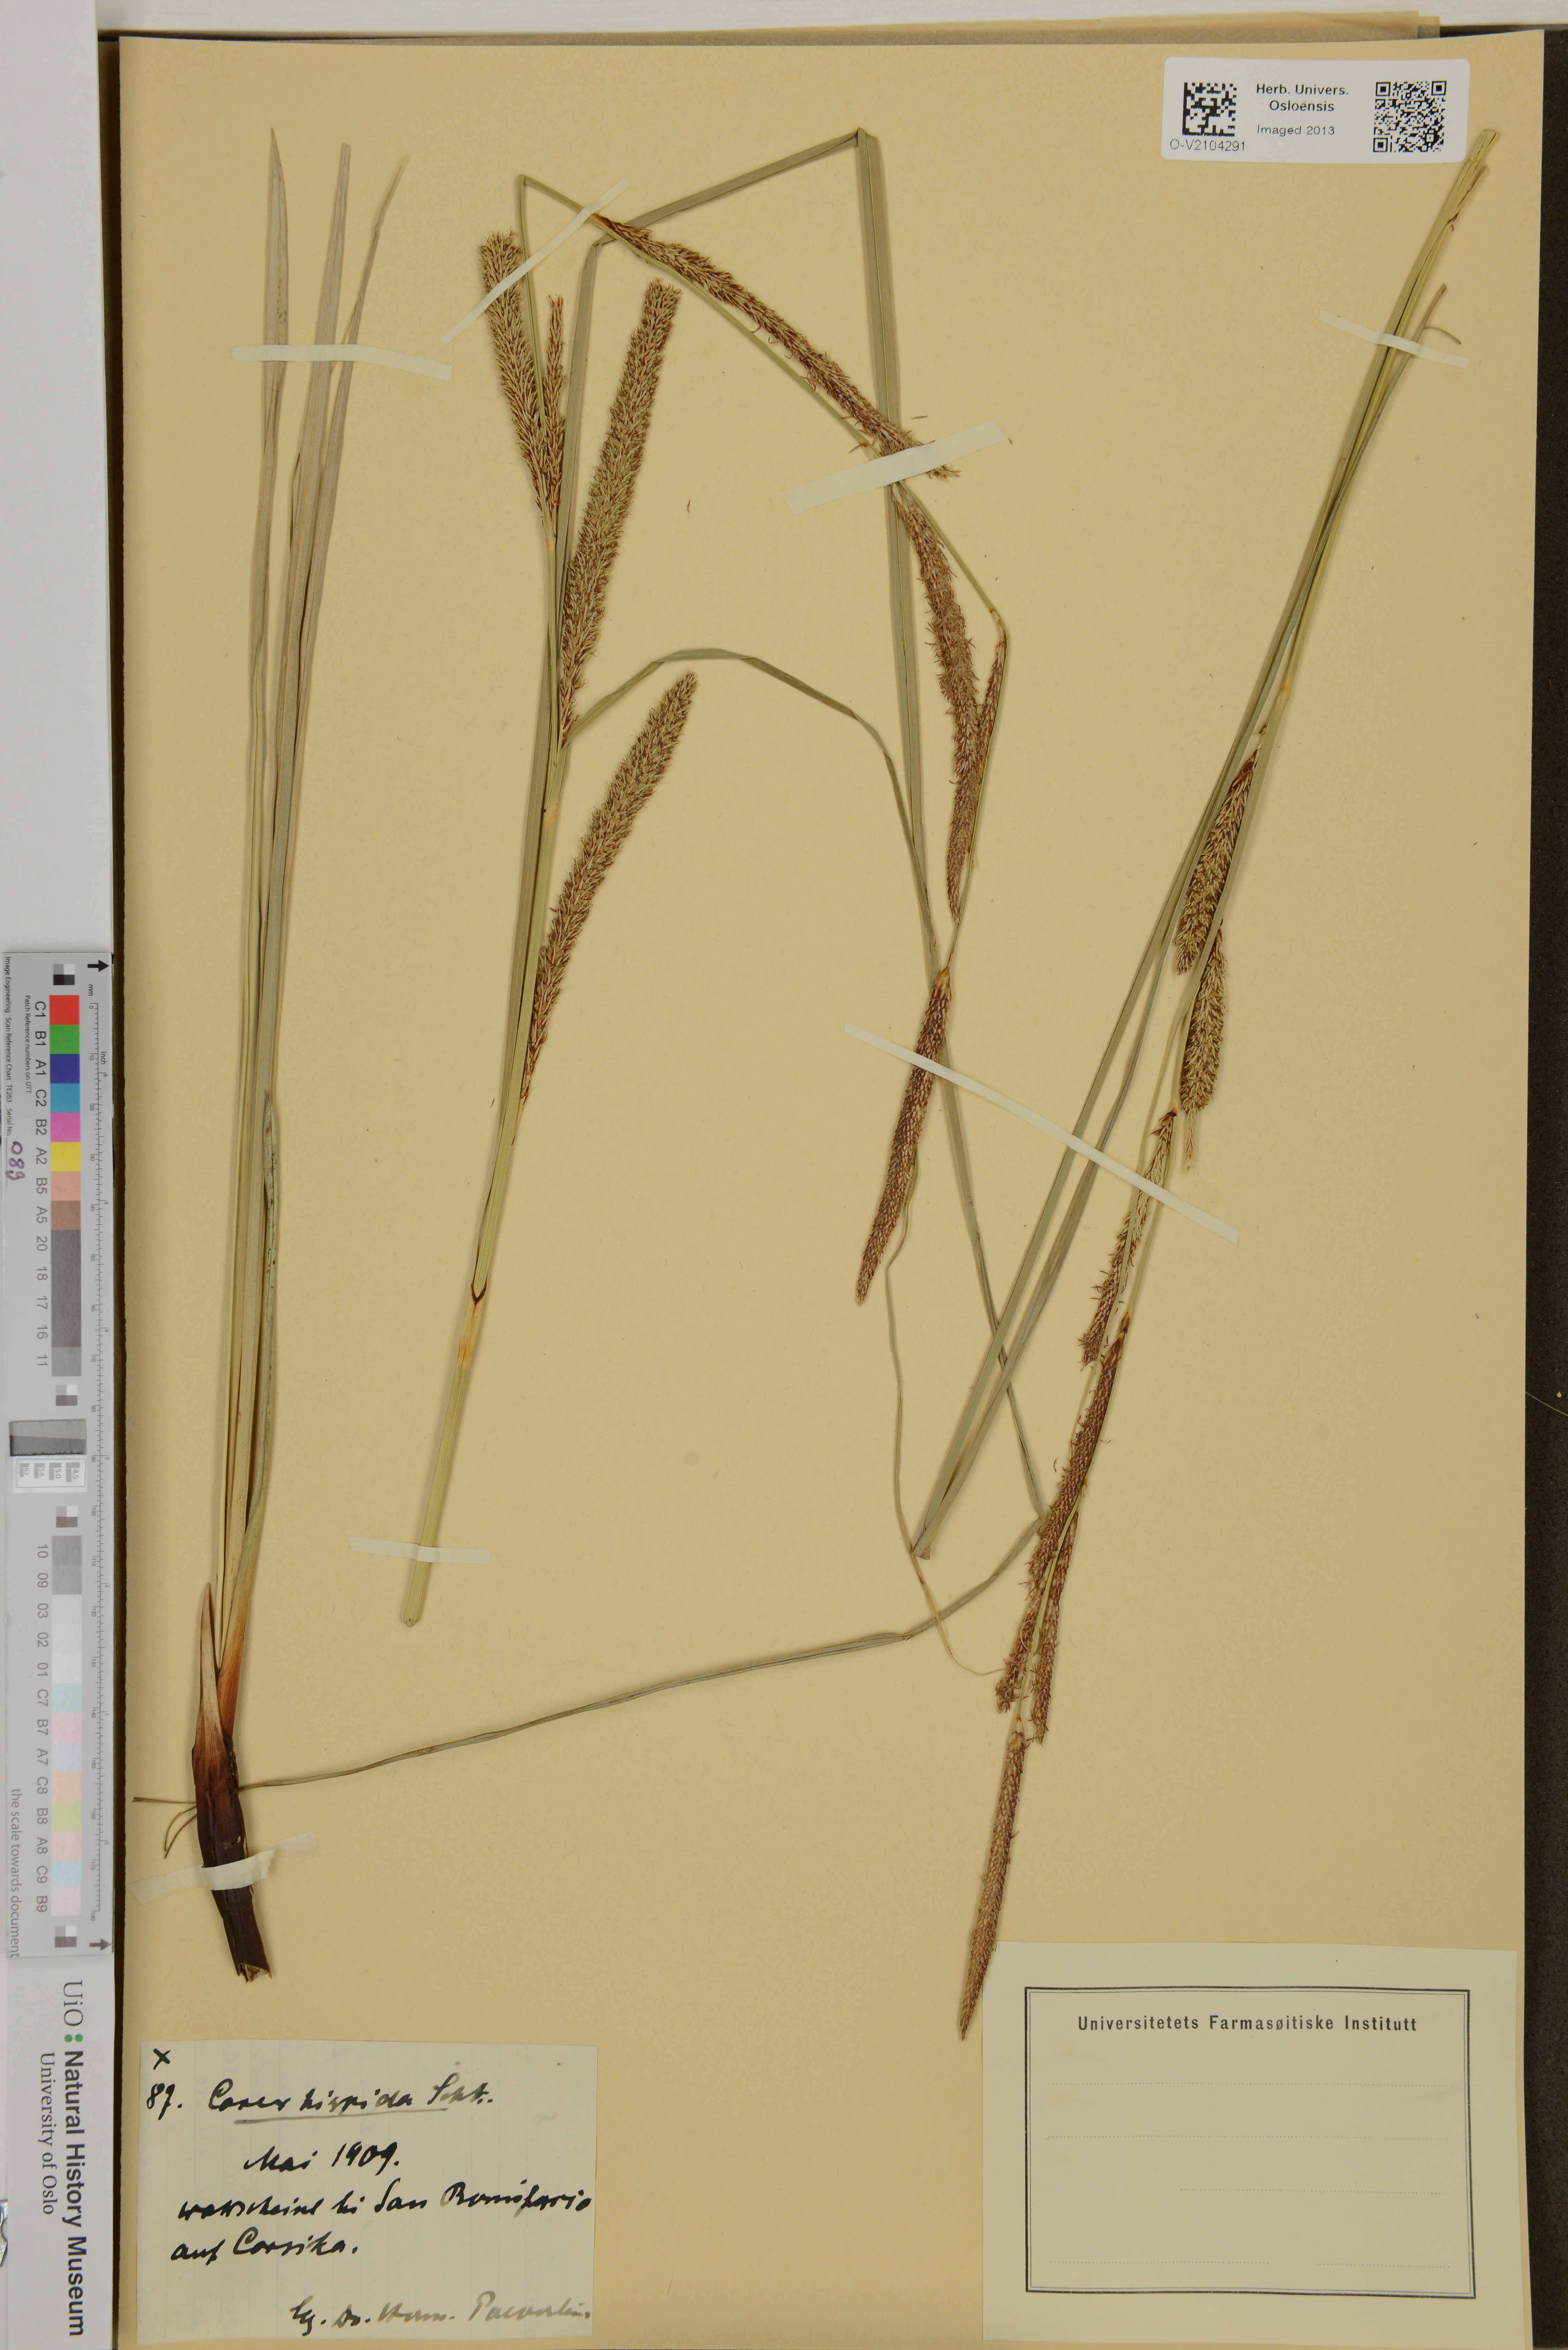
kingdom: Plantae
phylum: Tracheophyta
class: Liliopsida
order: Poales
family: Cyperaceae
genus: Carex
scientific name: Carex hispida
